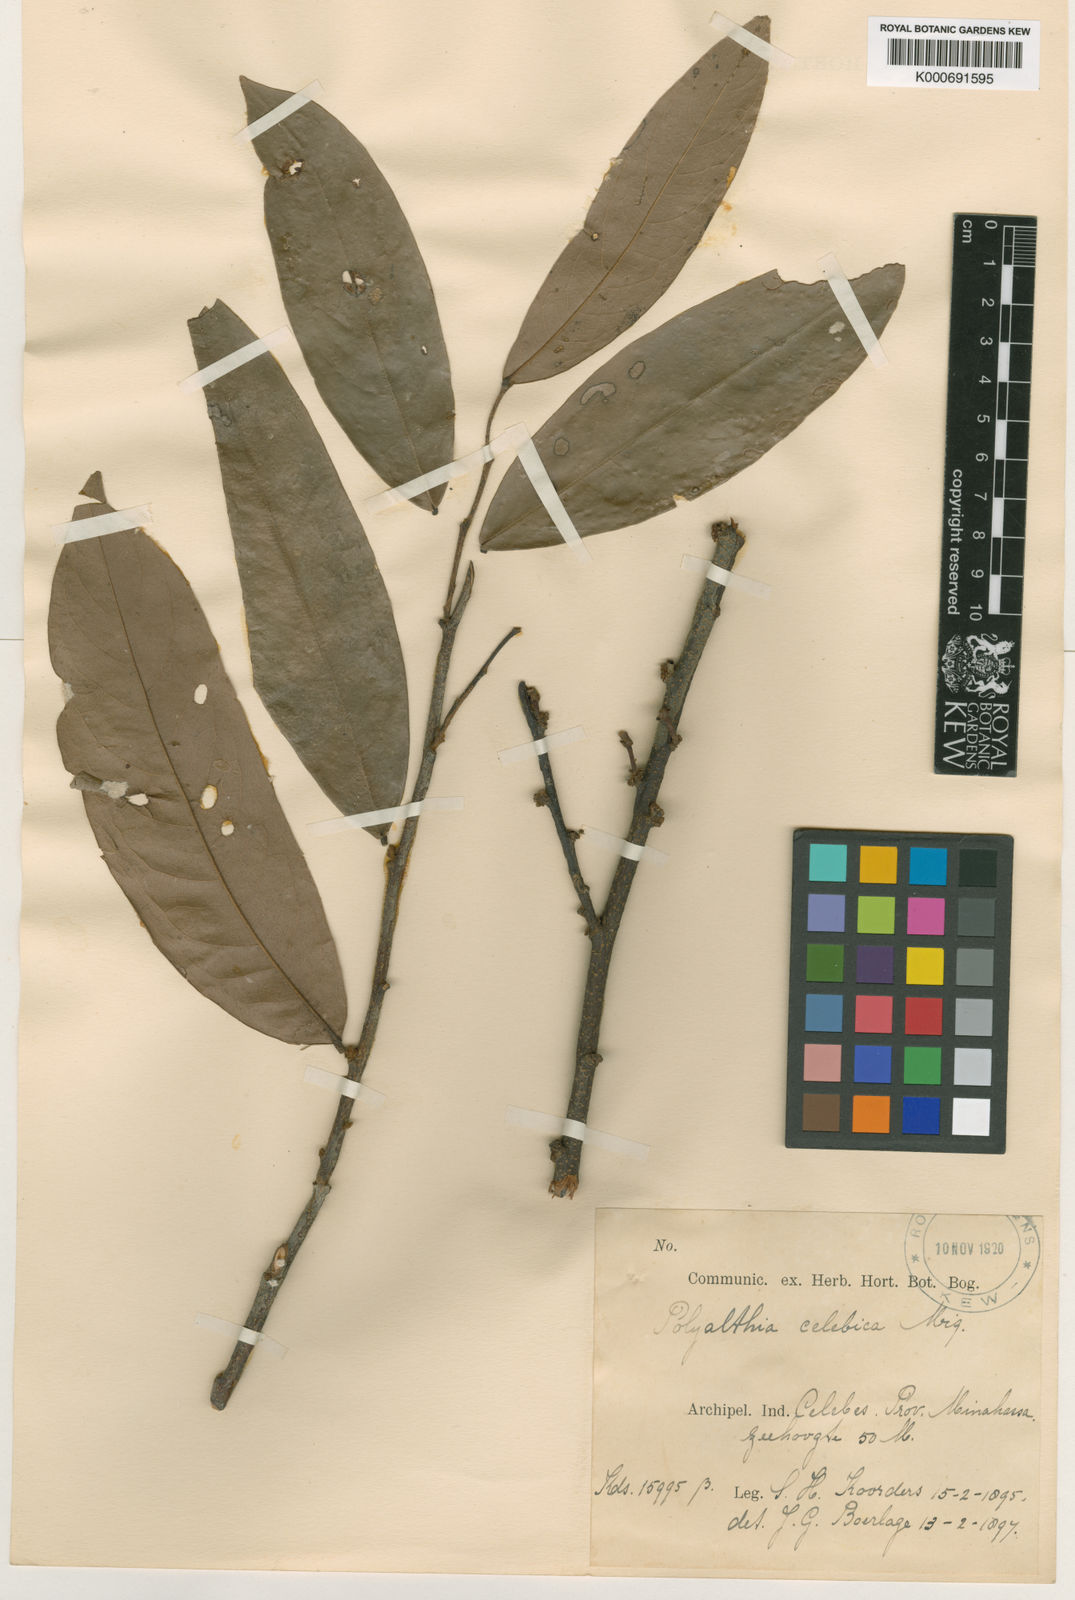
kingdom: Plantae
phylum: Tracheophyta
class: Magnoliopsida
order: Magnoliales
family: Annonaceae
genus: Polyalthia
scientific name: Polyalthia celebica
